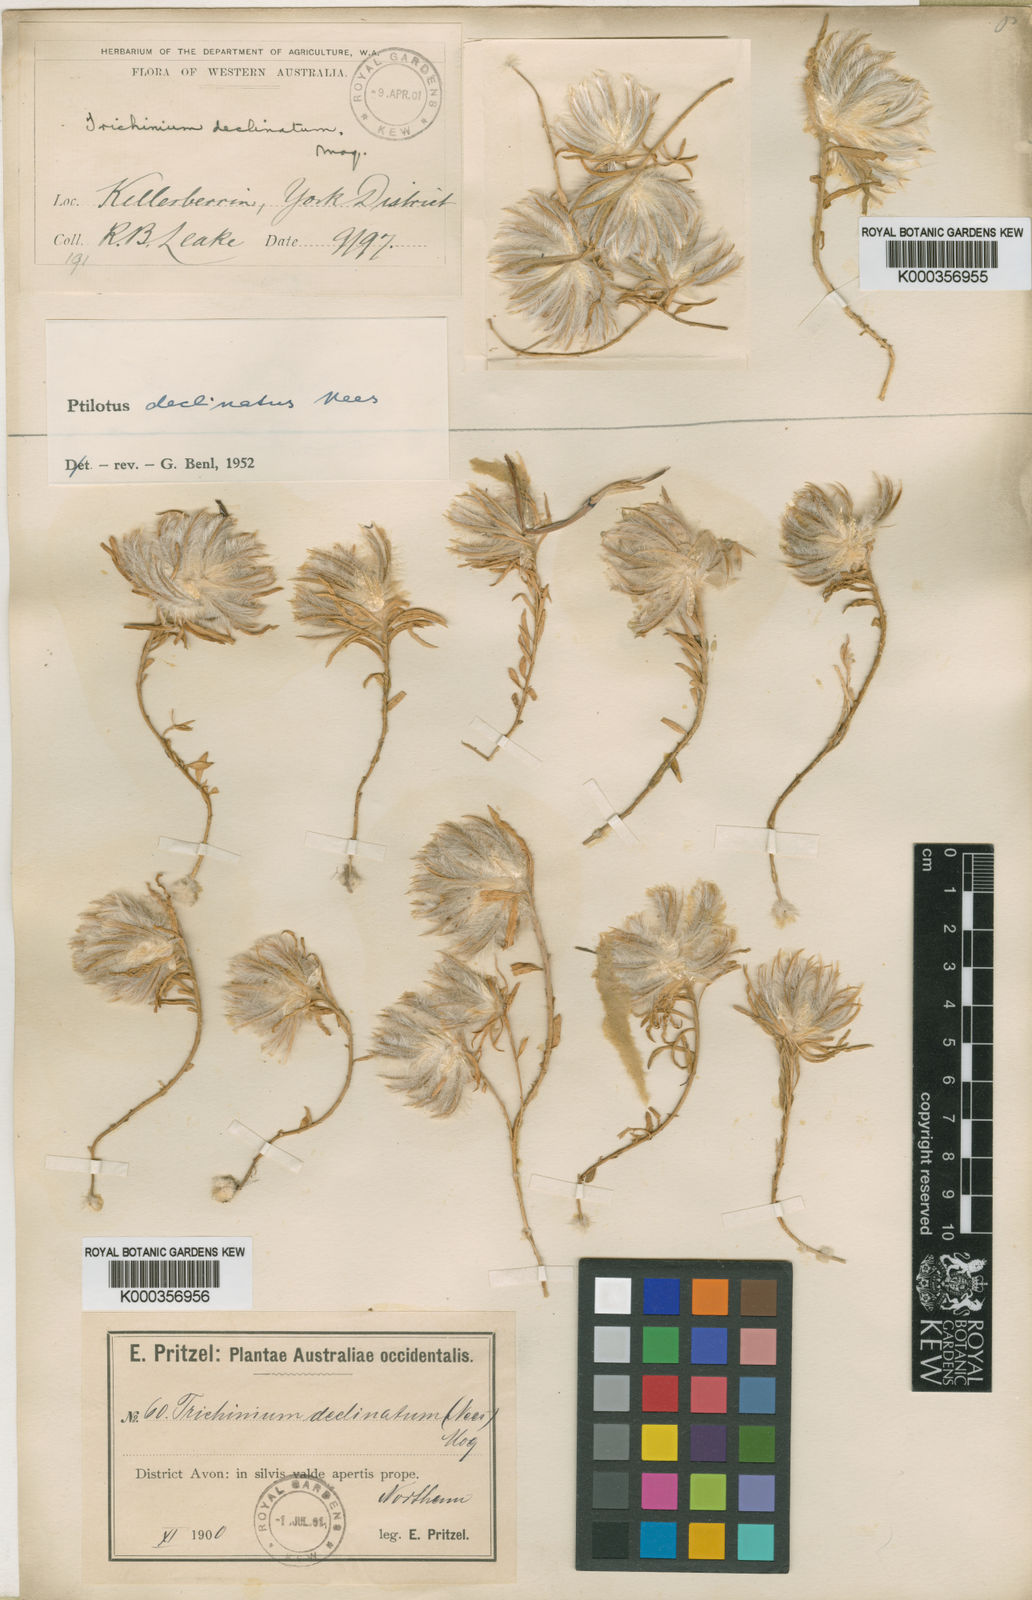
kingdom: Plantae
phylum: Tracheophyta
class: Magnoliopsida
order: Caryophyllales
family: Amaranthaceae
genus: Ptilotus
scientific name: Ptilotus declinatus
